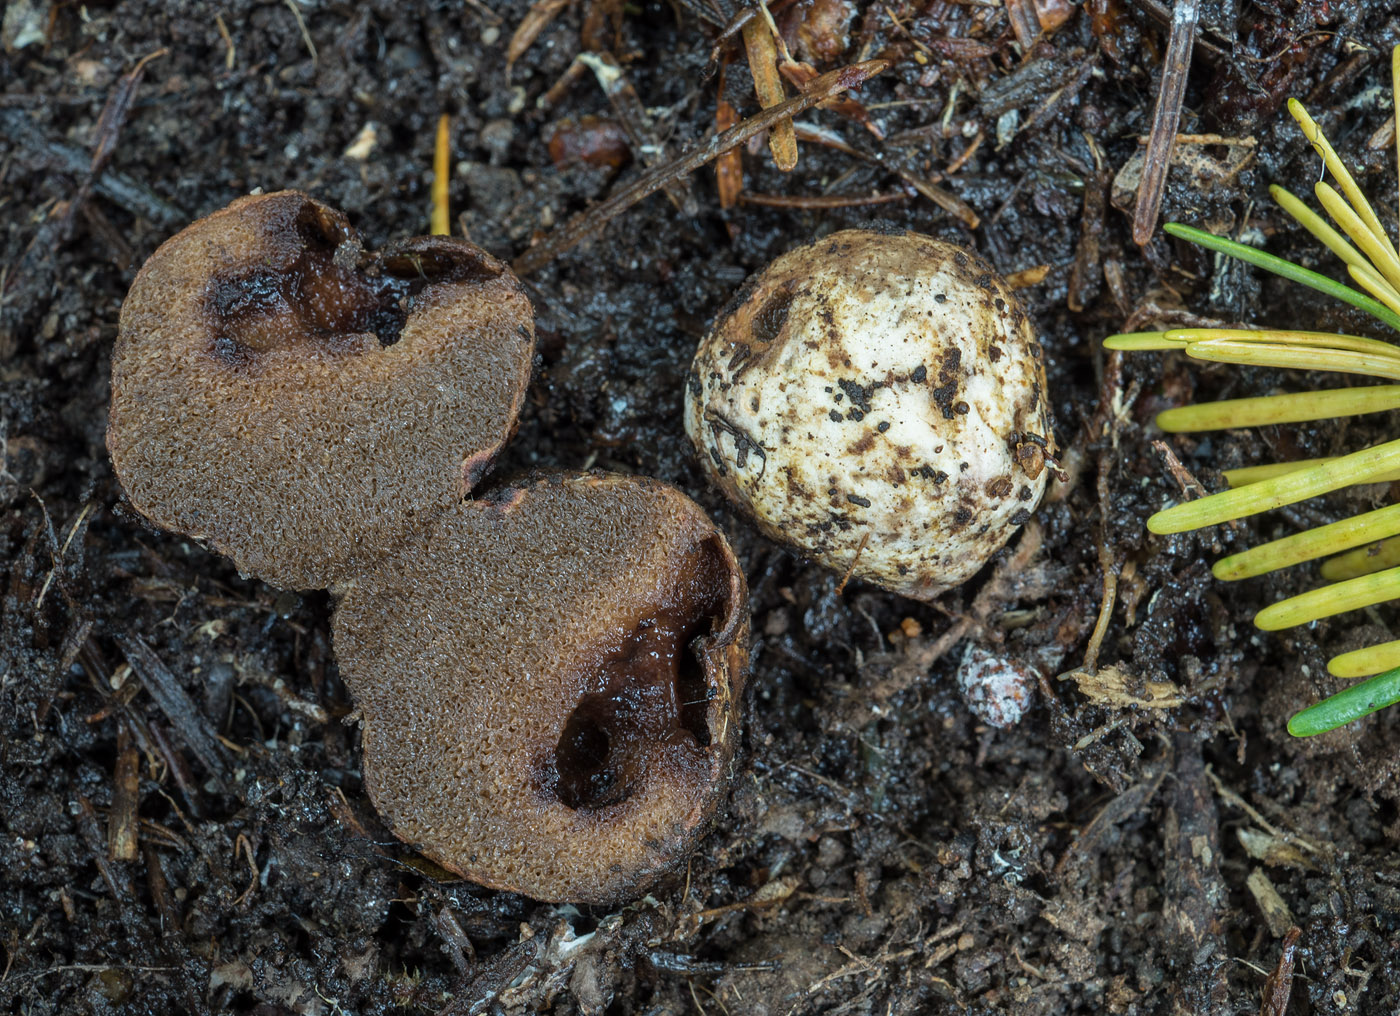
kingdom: Fungi
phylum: Basidiomycota
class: Agaricomycetes
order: Boletales
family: Rhizopogonaceae
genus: Rhizopogon
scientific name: Rhizopogon
